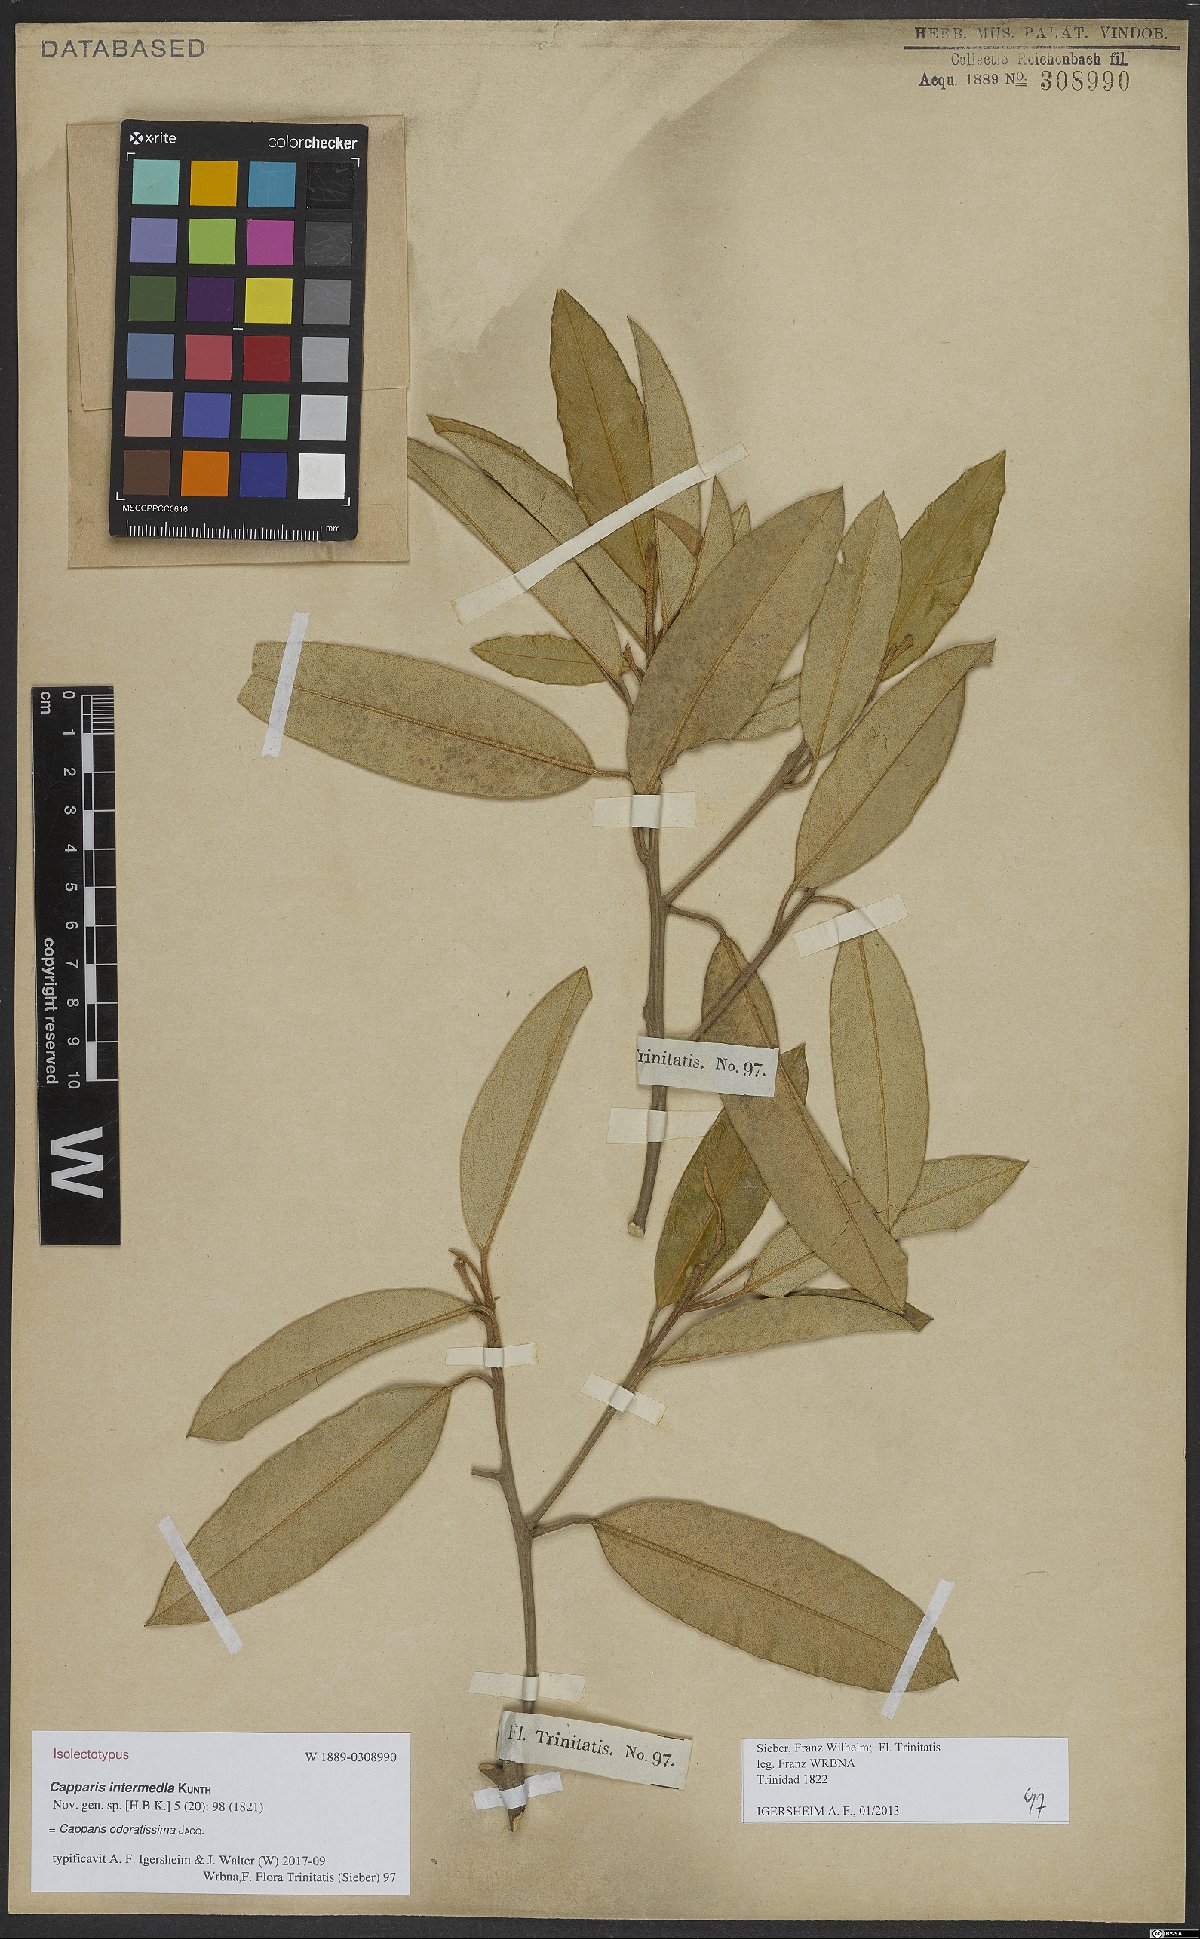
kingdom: Plantae
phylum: Tracheophyta
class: Magnoliopsida
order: Brassicales
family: Capparaceae
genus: Quadrella
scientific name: Quadrella odoratissima
